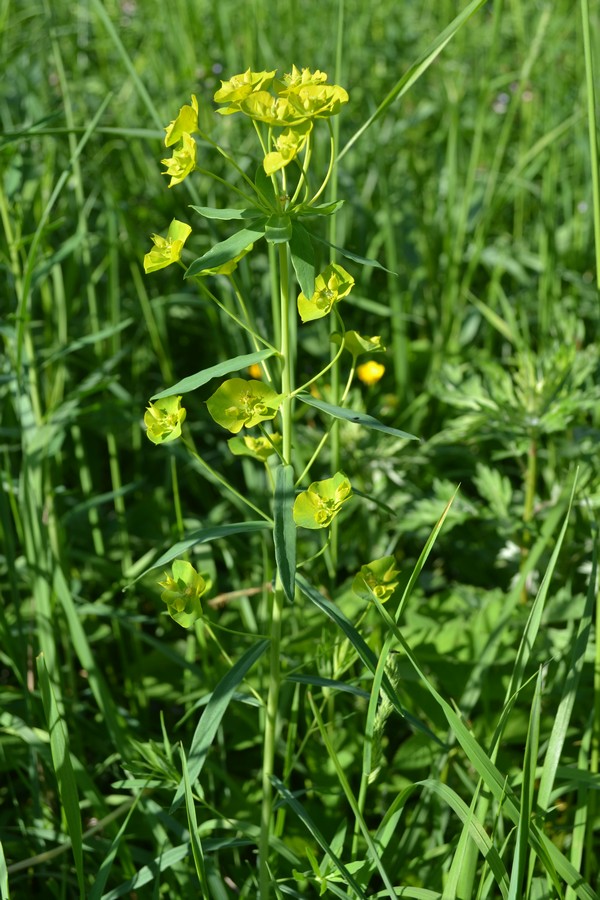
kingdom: Plantae
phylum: Tracheophyta
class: Magnoliopsida
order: Malpighiales
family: Euphorbiaceae
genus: Euphorbia
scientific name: Euphorbia virgata
